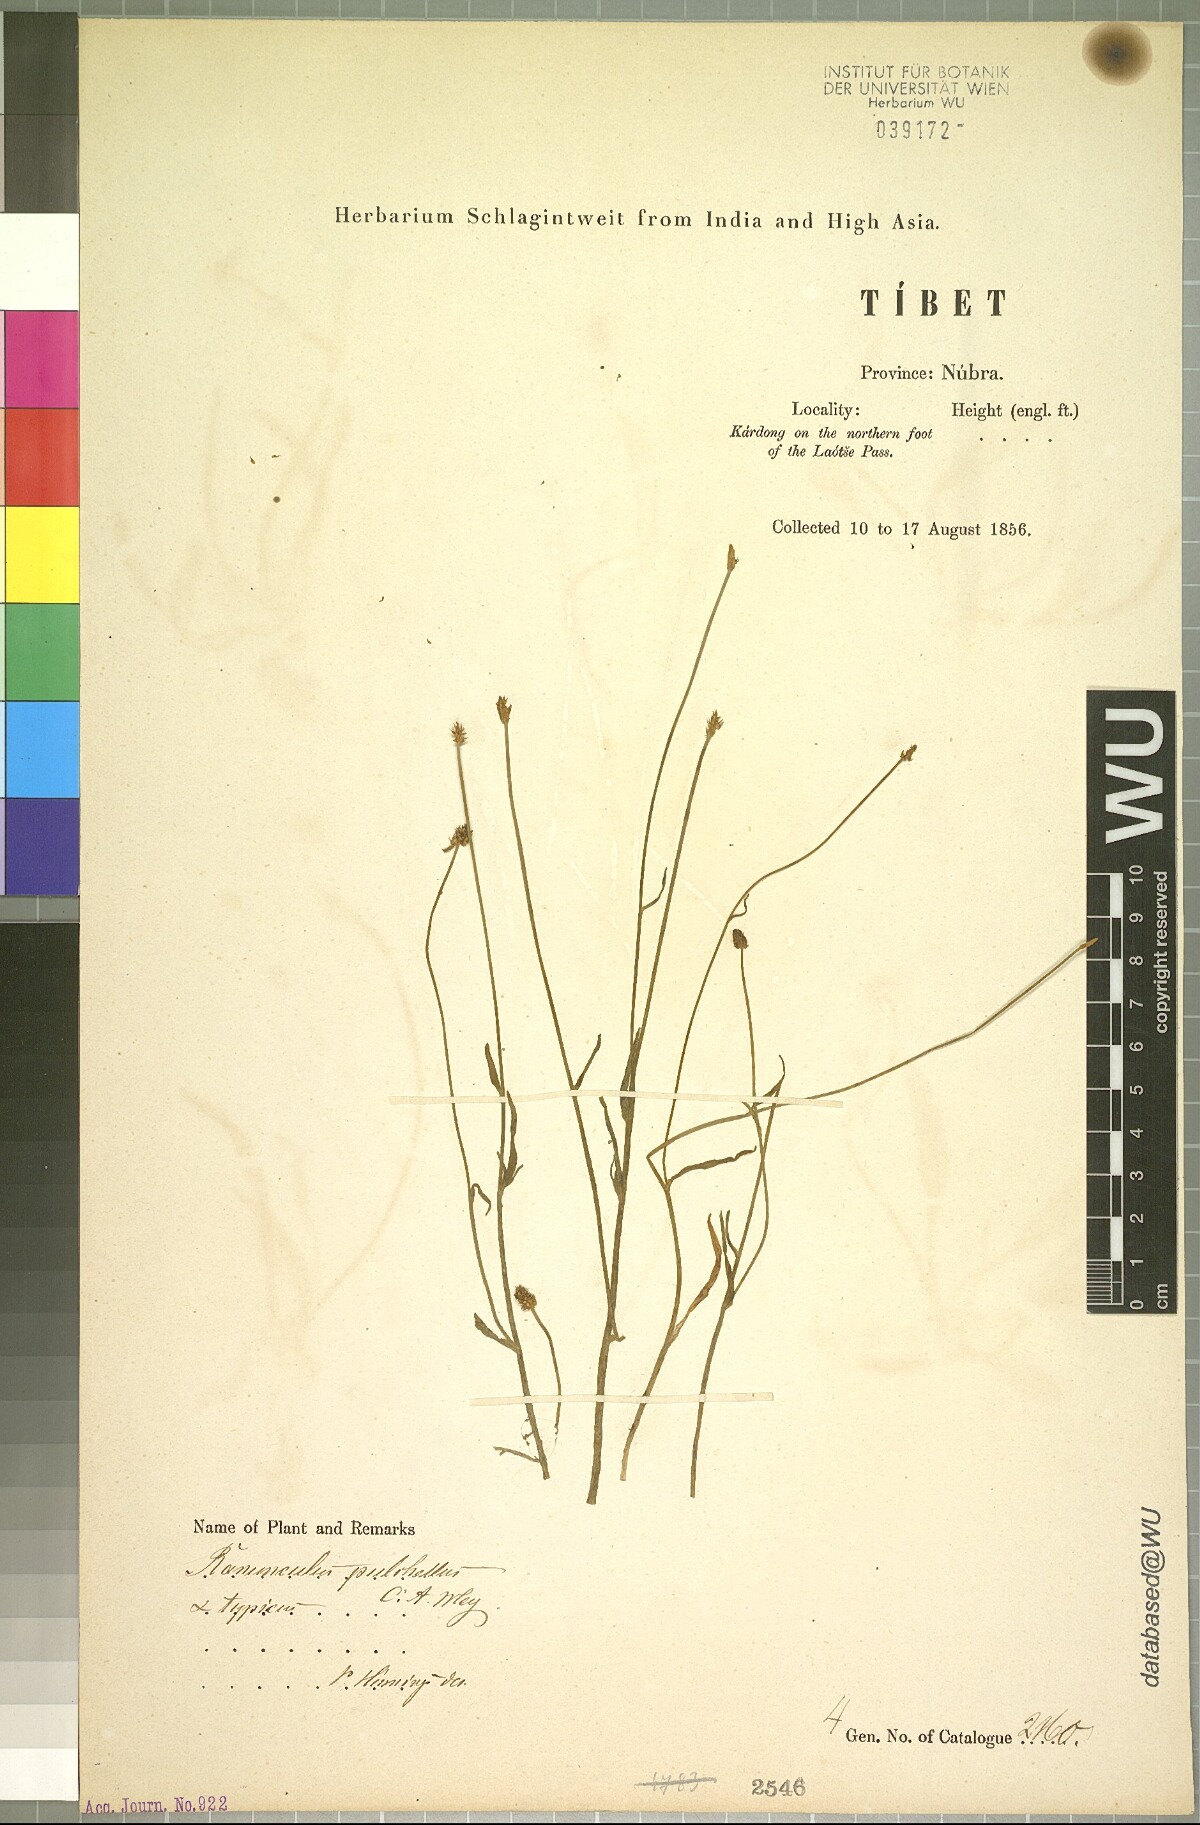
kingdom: Plantae
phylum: Tracheophyta
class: Magnoliopsida
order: Ranunculales
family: Ranunculaceae
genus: Ranunculus
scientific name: Ranunculus pulchellus
